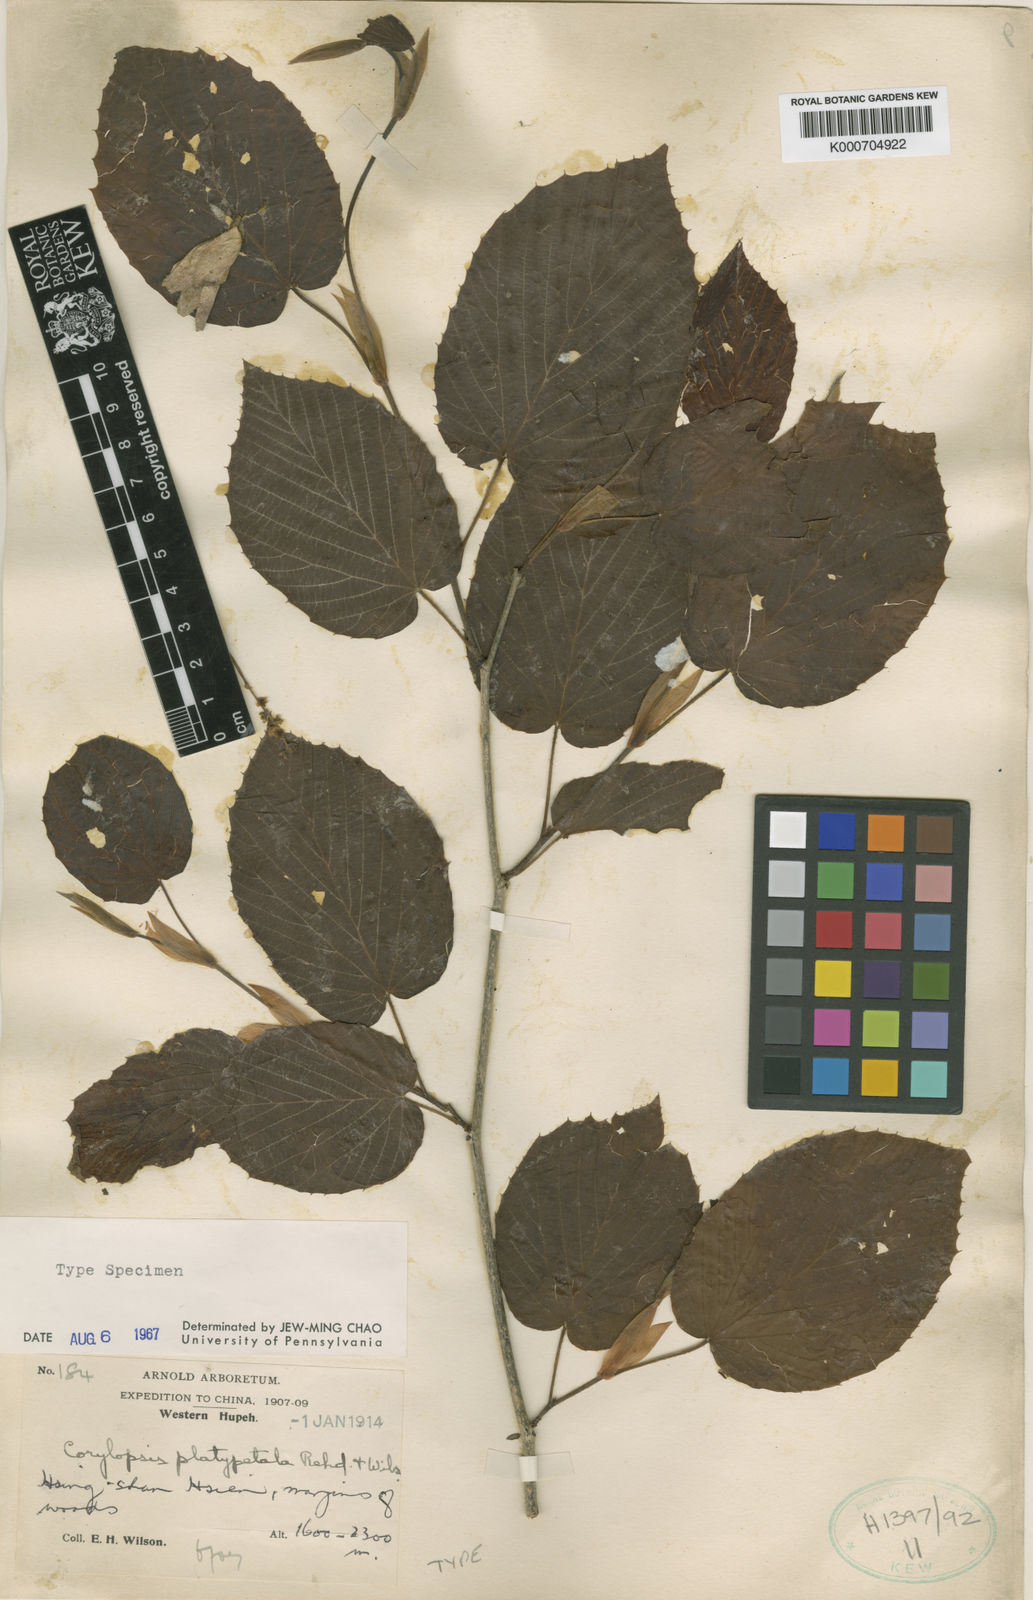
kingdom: Plantae
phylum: Tracheophyta
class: Magnoliopsida
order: Saxifragales
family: Hamamelidaceae
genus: Corylopsis
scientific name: Corylopsis sinensis
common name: Winter hazel
